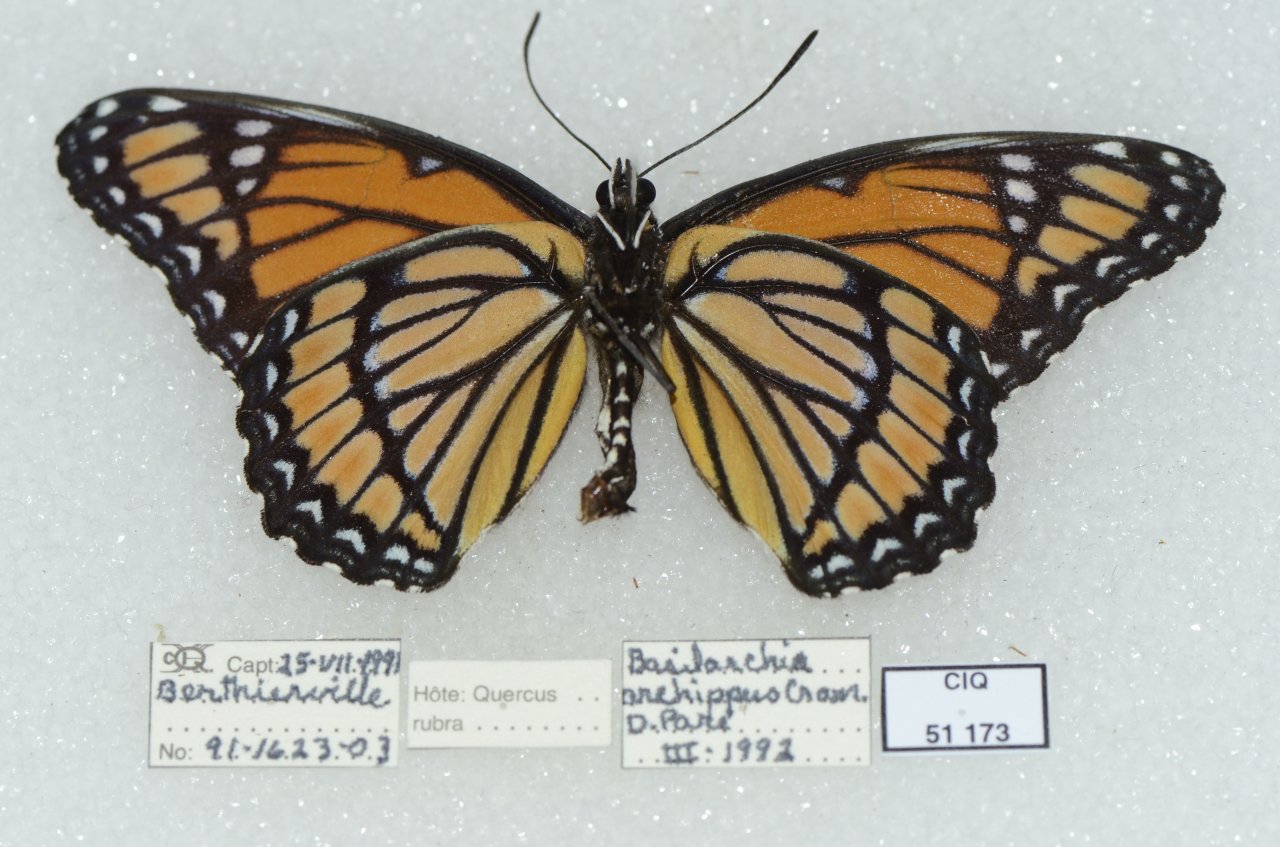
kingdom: Animalia
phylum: Arthropoda
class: Insecta
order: Lepidoptera
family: Nymphalidae
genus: Limenitis
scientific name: Limenitis archippus
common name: Viceroy
